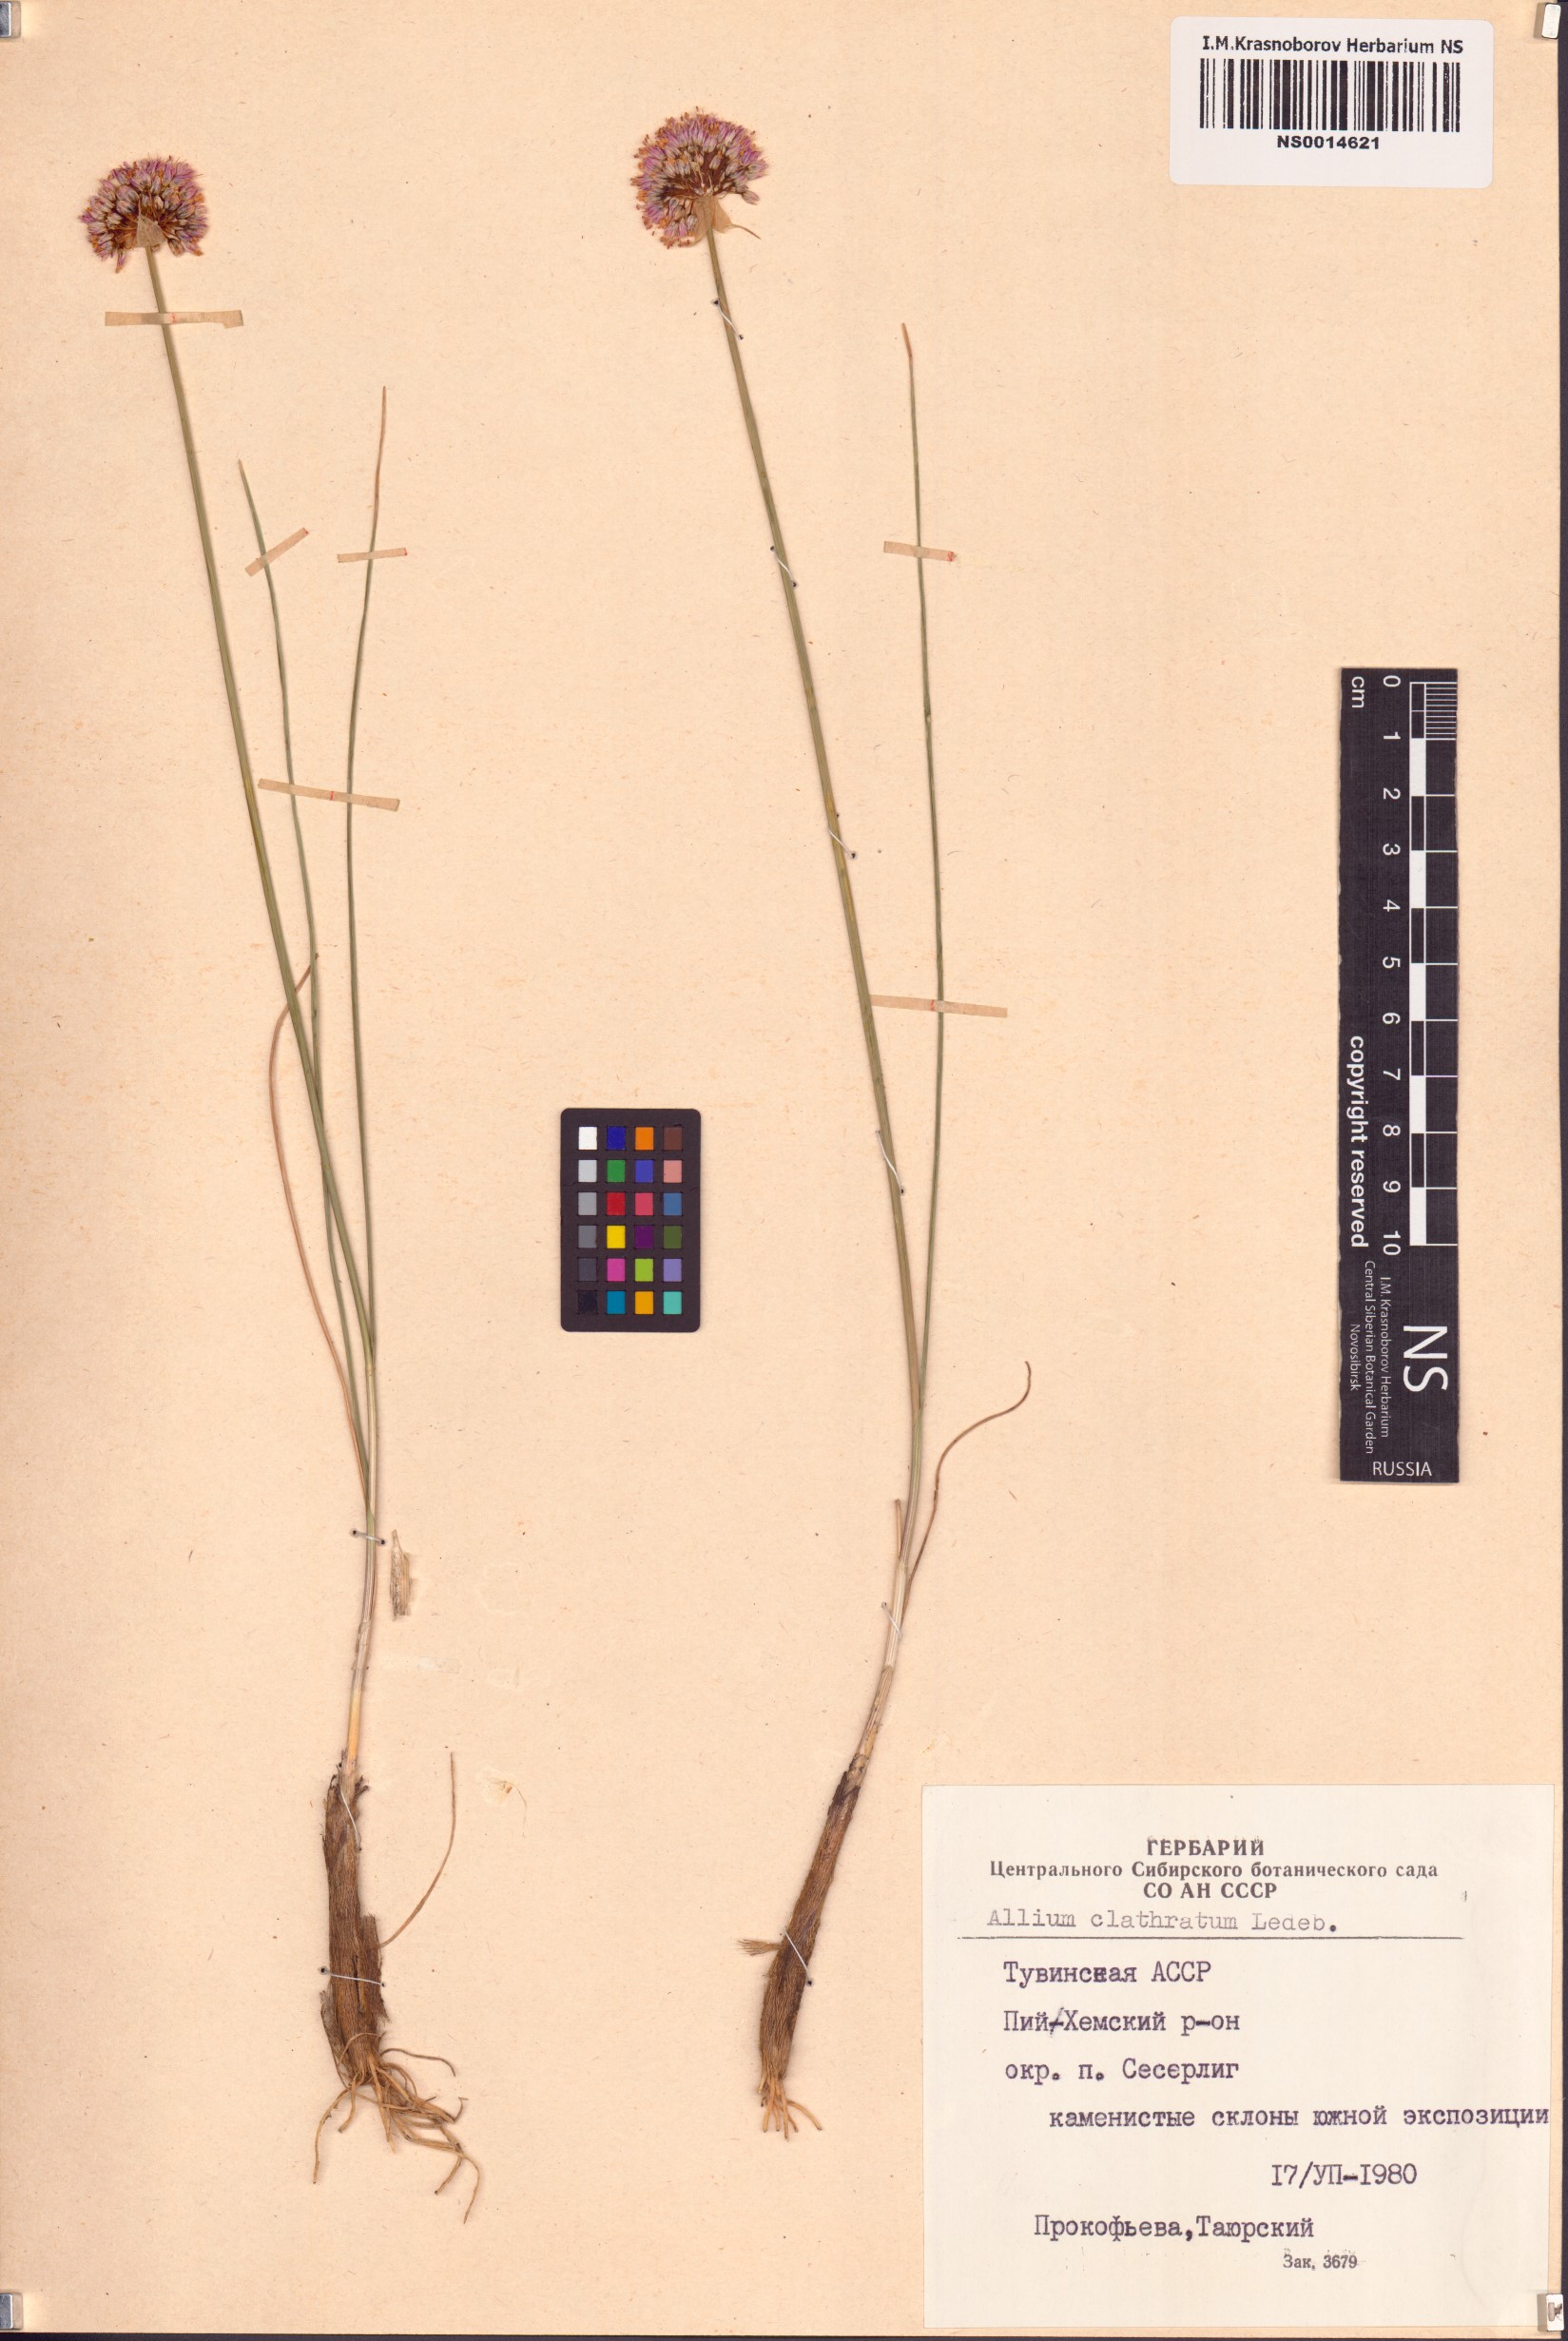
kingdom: Plantae
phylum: Tracheophyta
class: Liliopsida
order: Asparagales
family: Amaryllidaceae
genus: Allium
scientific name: Allium clathratum
